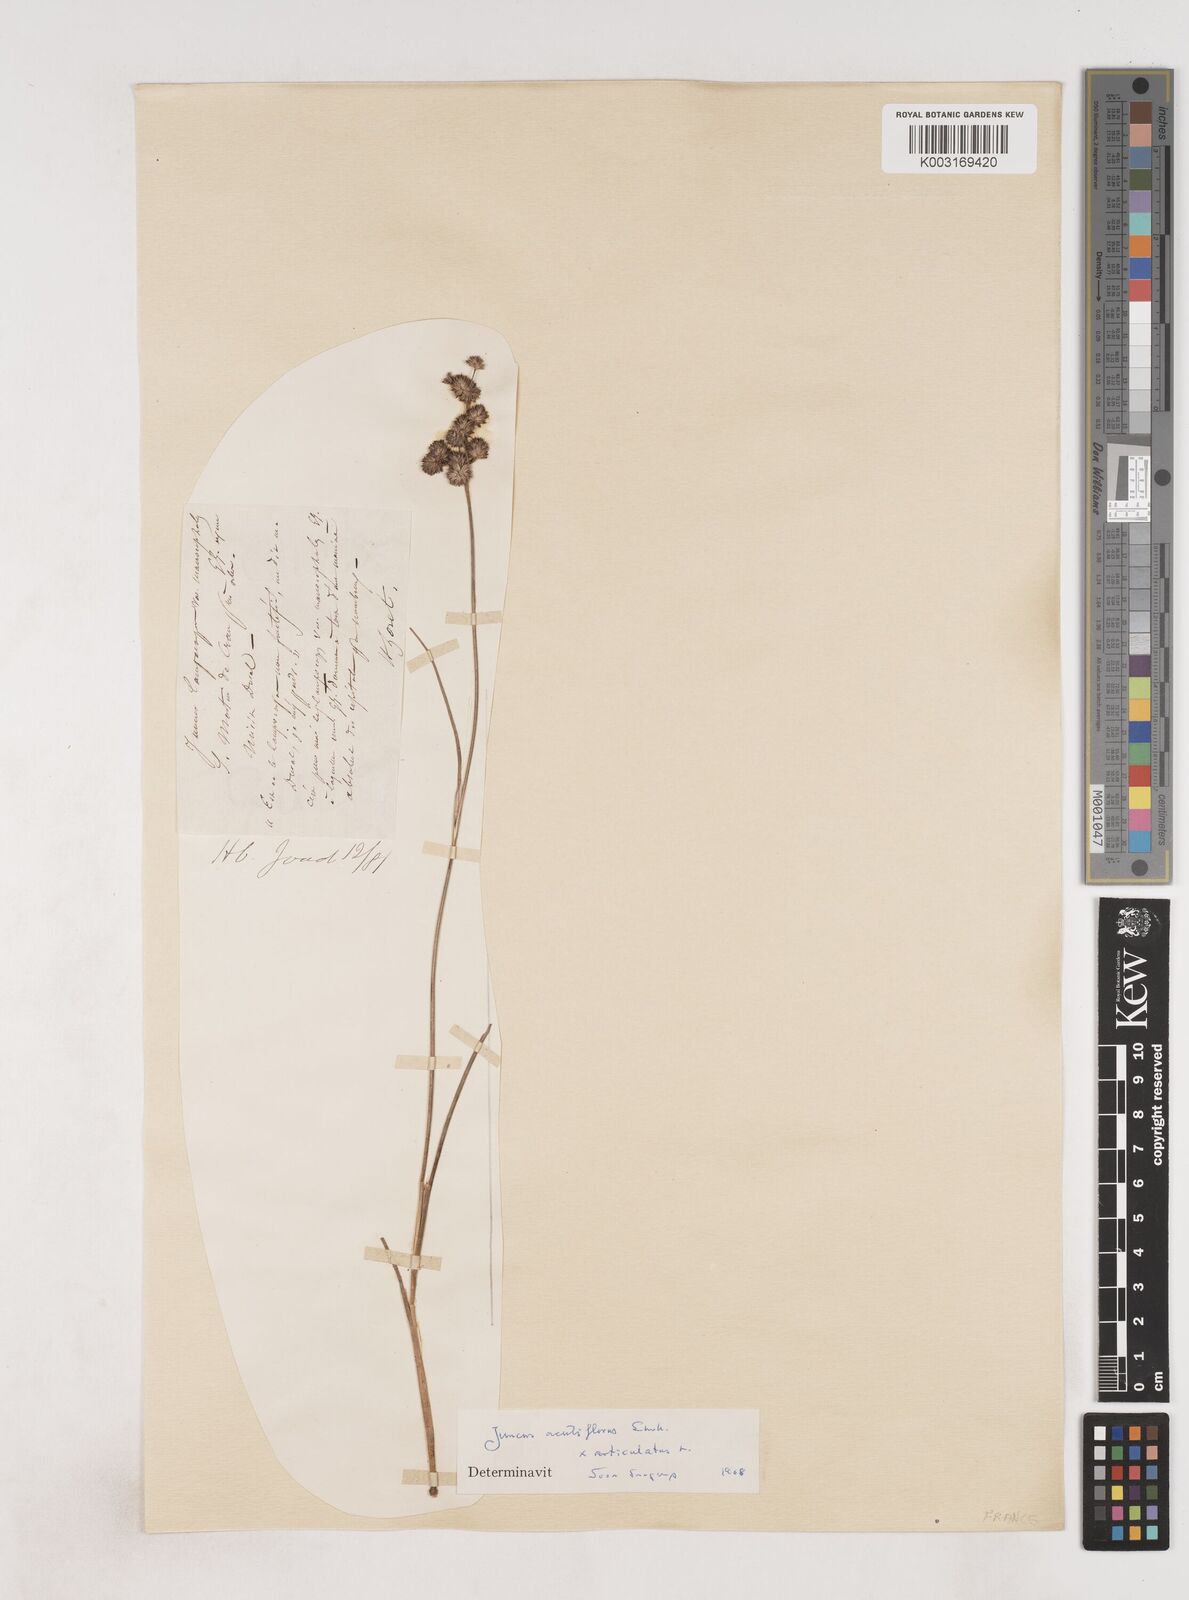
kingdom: Plantae
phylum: Tracheophyta
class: Liliopsida
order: Poales
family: Juncaceae
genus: Juncus
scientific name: Juncus acutiflorus
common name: Sharp-flowered rush
